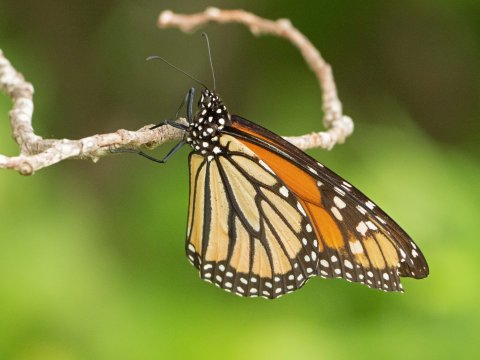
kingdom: Animalia
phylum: Arthropoda
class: Insecta
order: Lepidoptera
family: Nymphalidae
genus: Danaus
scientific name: Danaus plexippus
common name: Monarch
